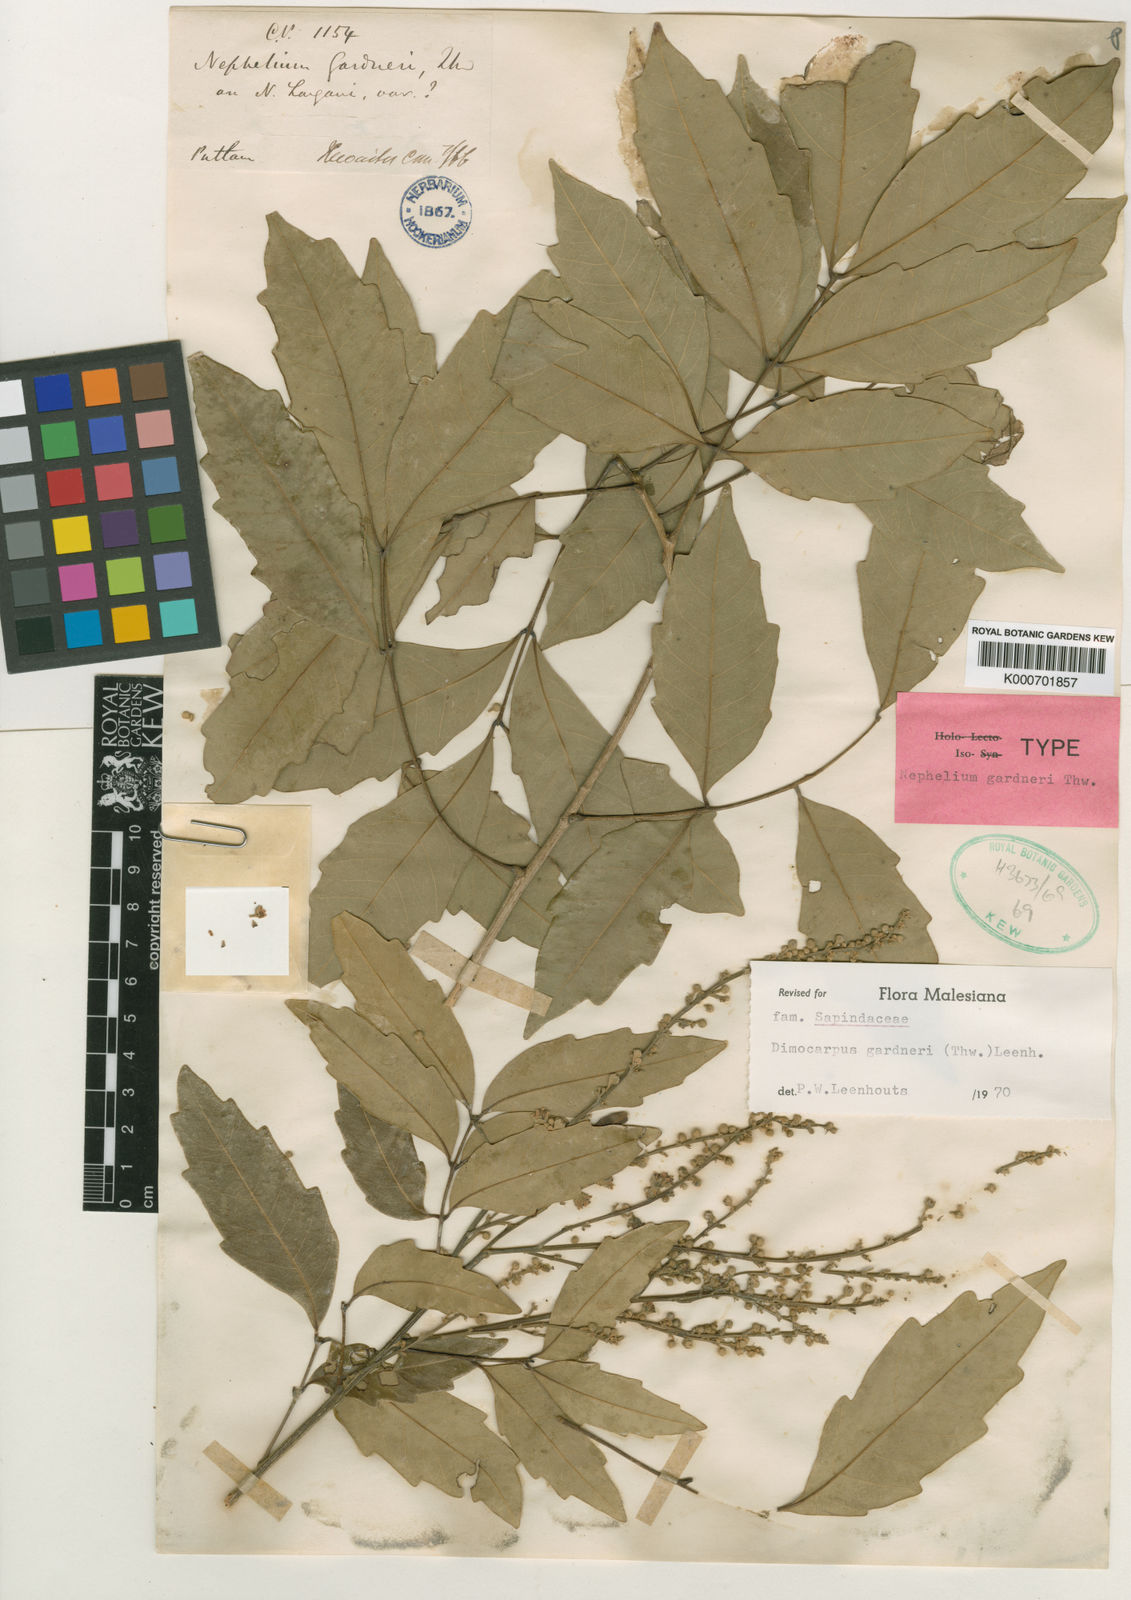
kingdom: Plantae
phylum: Tracheophyta
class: Magnoliopsida
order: Sapindales
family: Sapindaceae
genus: Dimocarpus
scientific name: Dimocarpus gardneri
